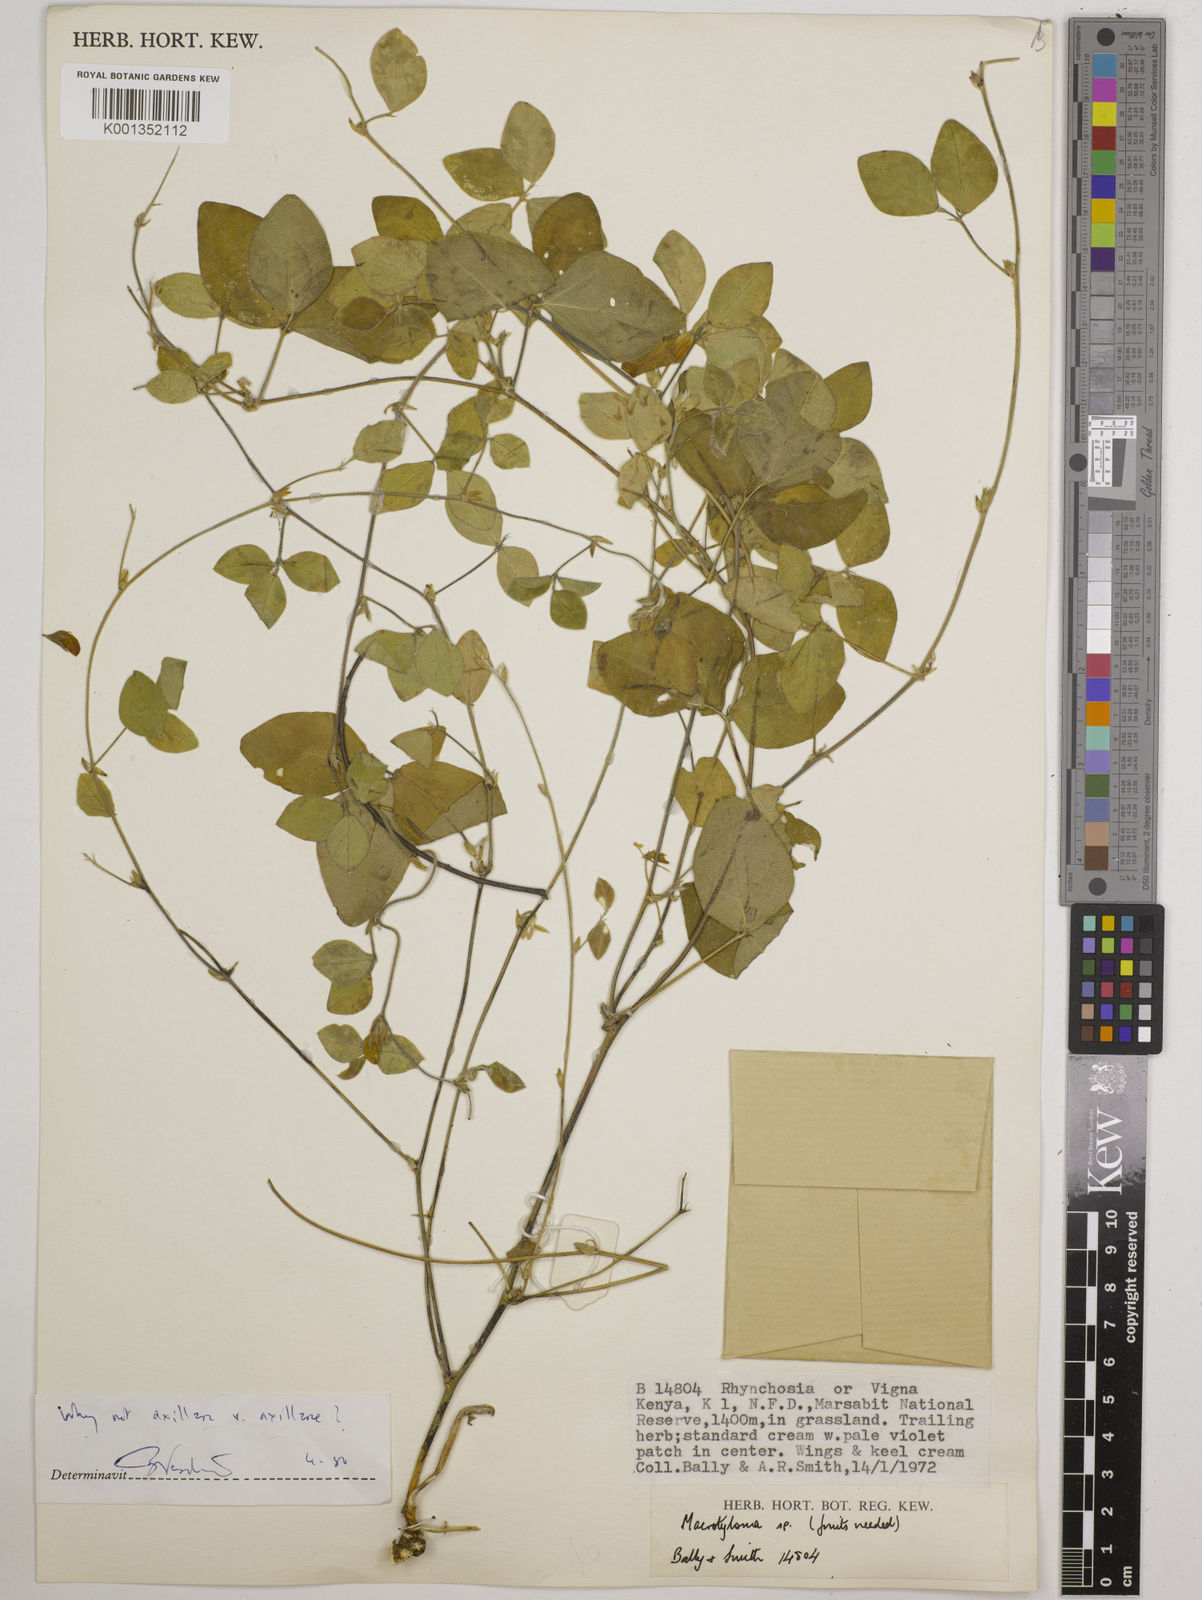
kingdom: Plantae
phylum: Tracheophyta
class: Magnoliopsida
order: Fabales
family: Fabaceae
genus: Macrotyloma
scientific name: Macrotyloma axillare
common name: Perennial horsegram
